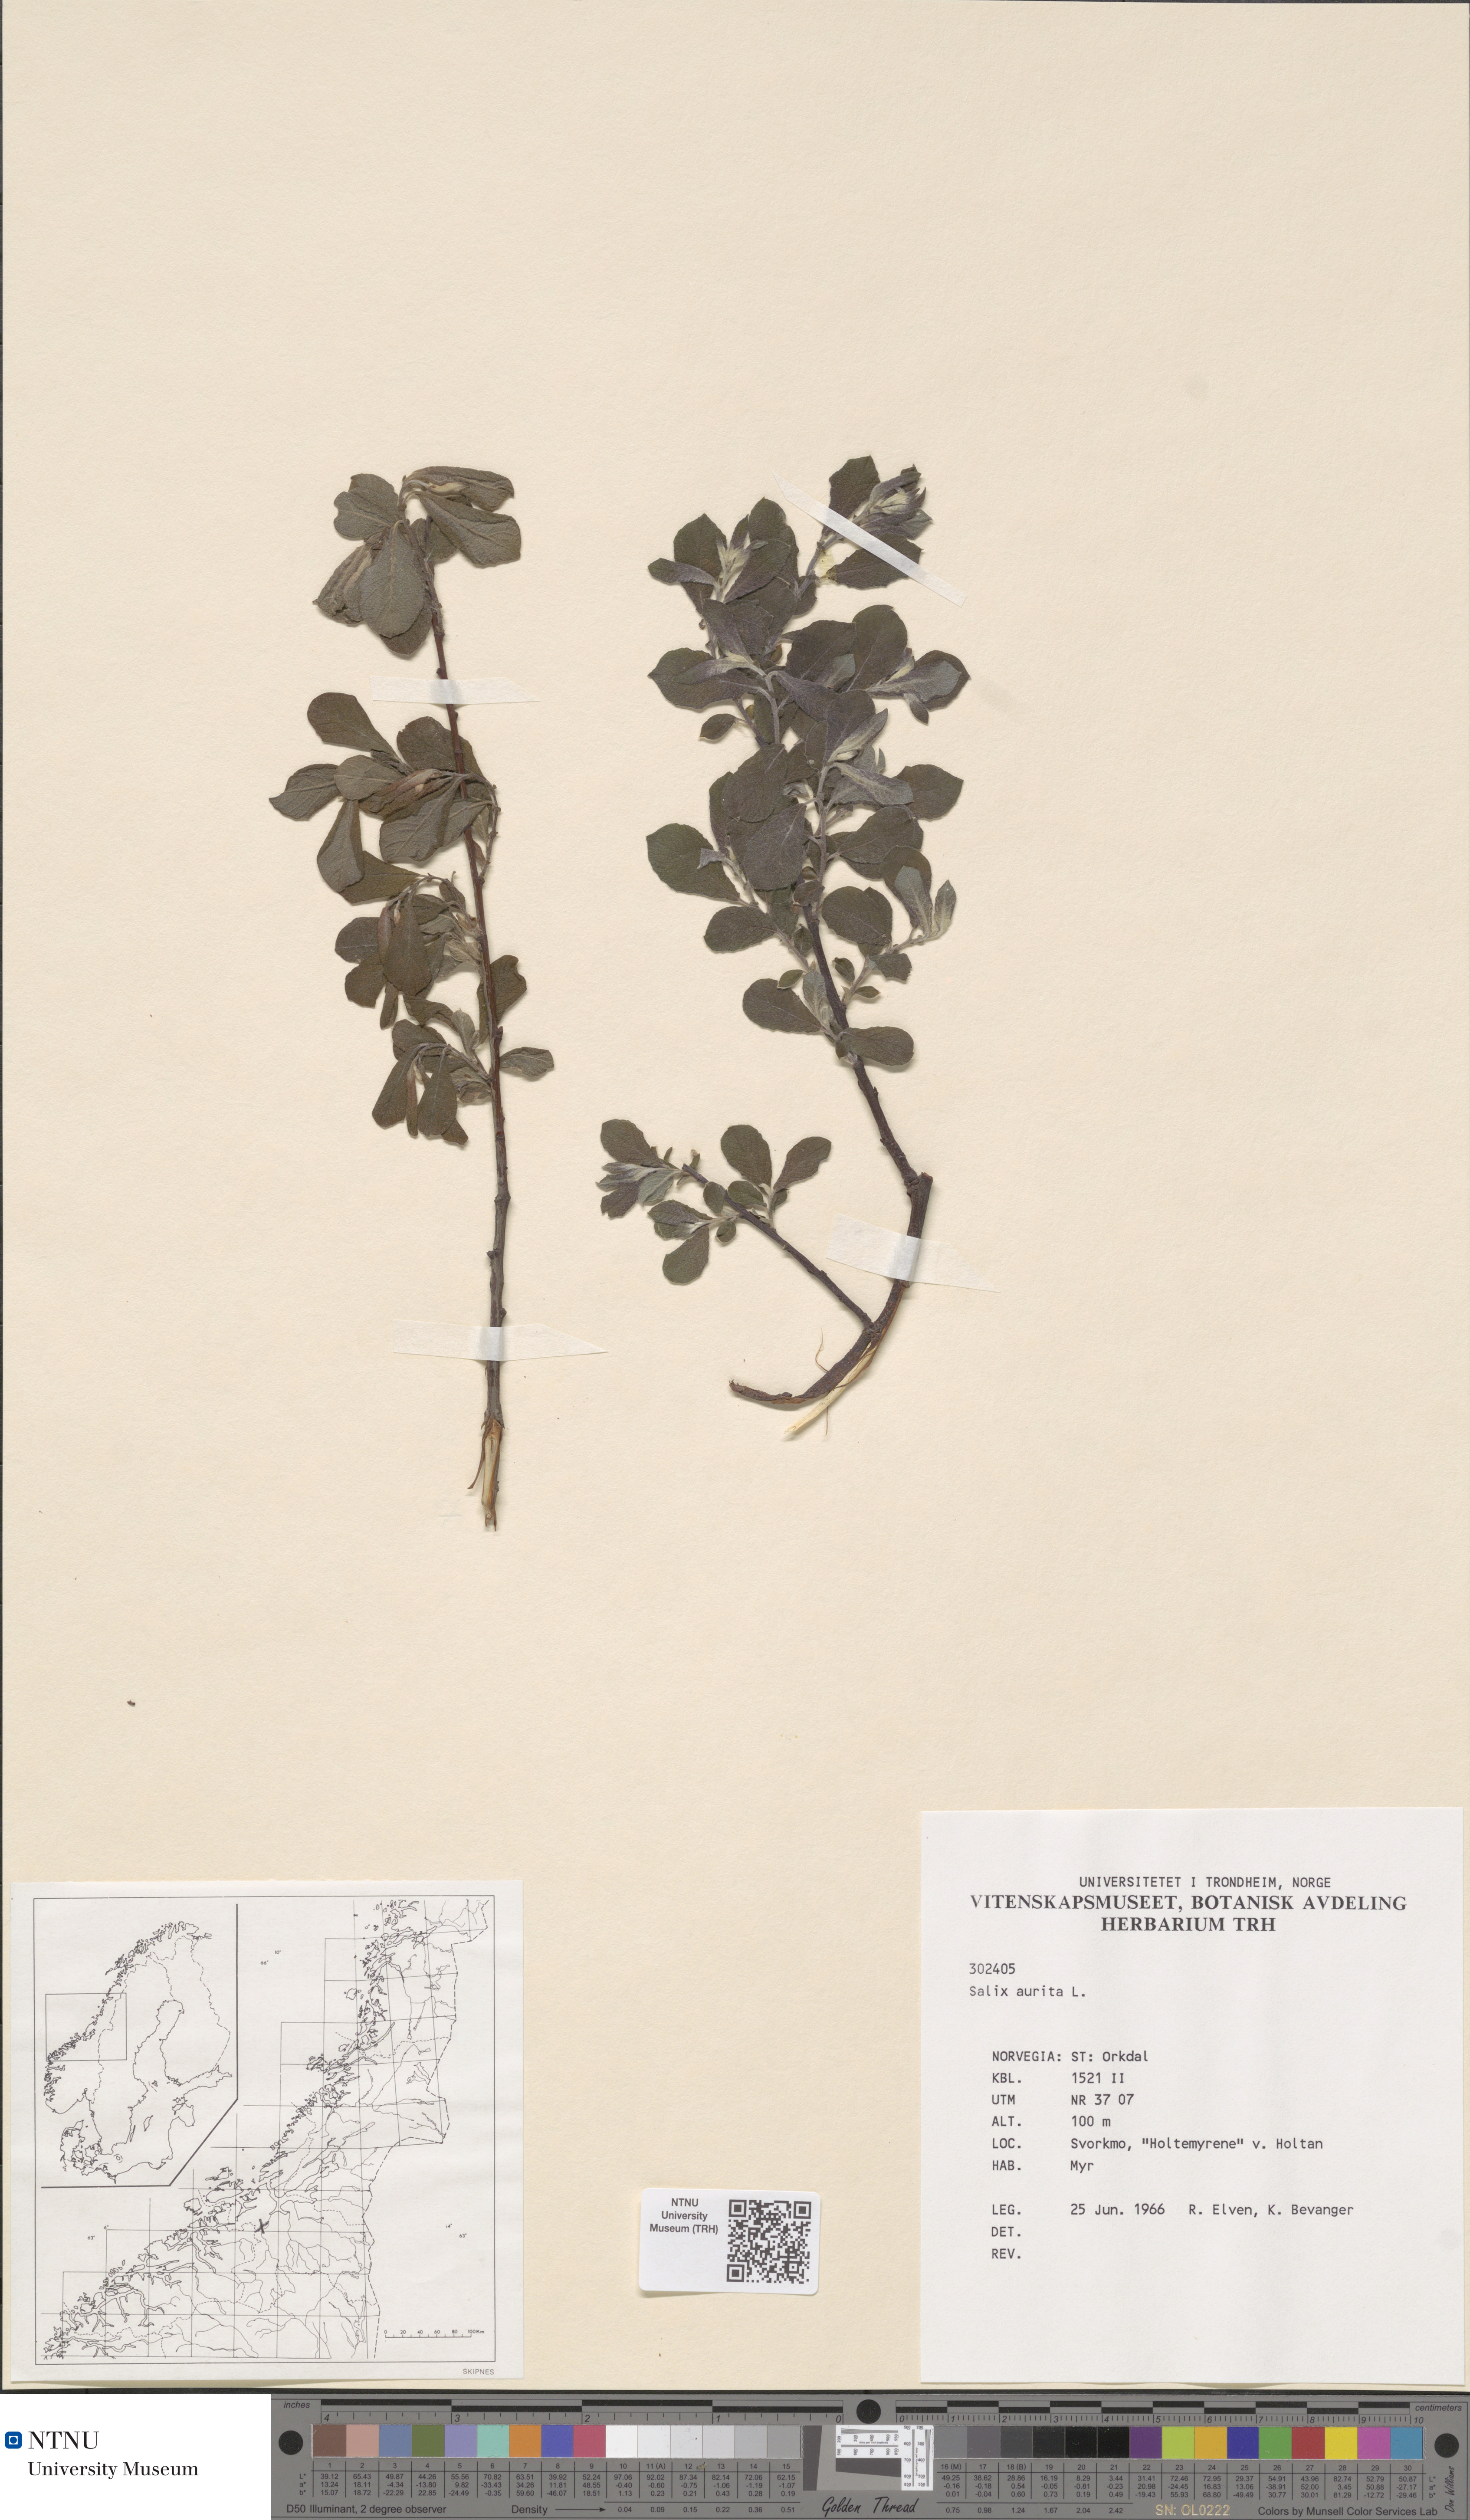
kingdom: Plantae
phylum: Tracheophyta
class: Magnoliopsida
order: Malpighiales
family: Salicaceae
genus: Salix
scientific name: Salix aurita
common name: Eared willow
